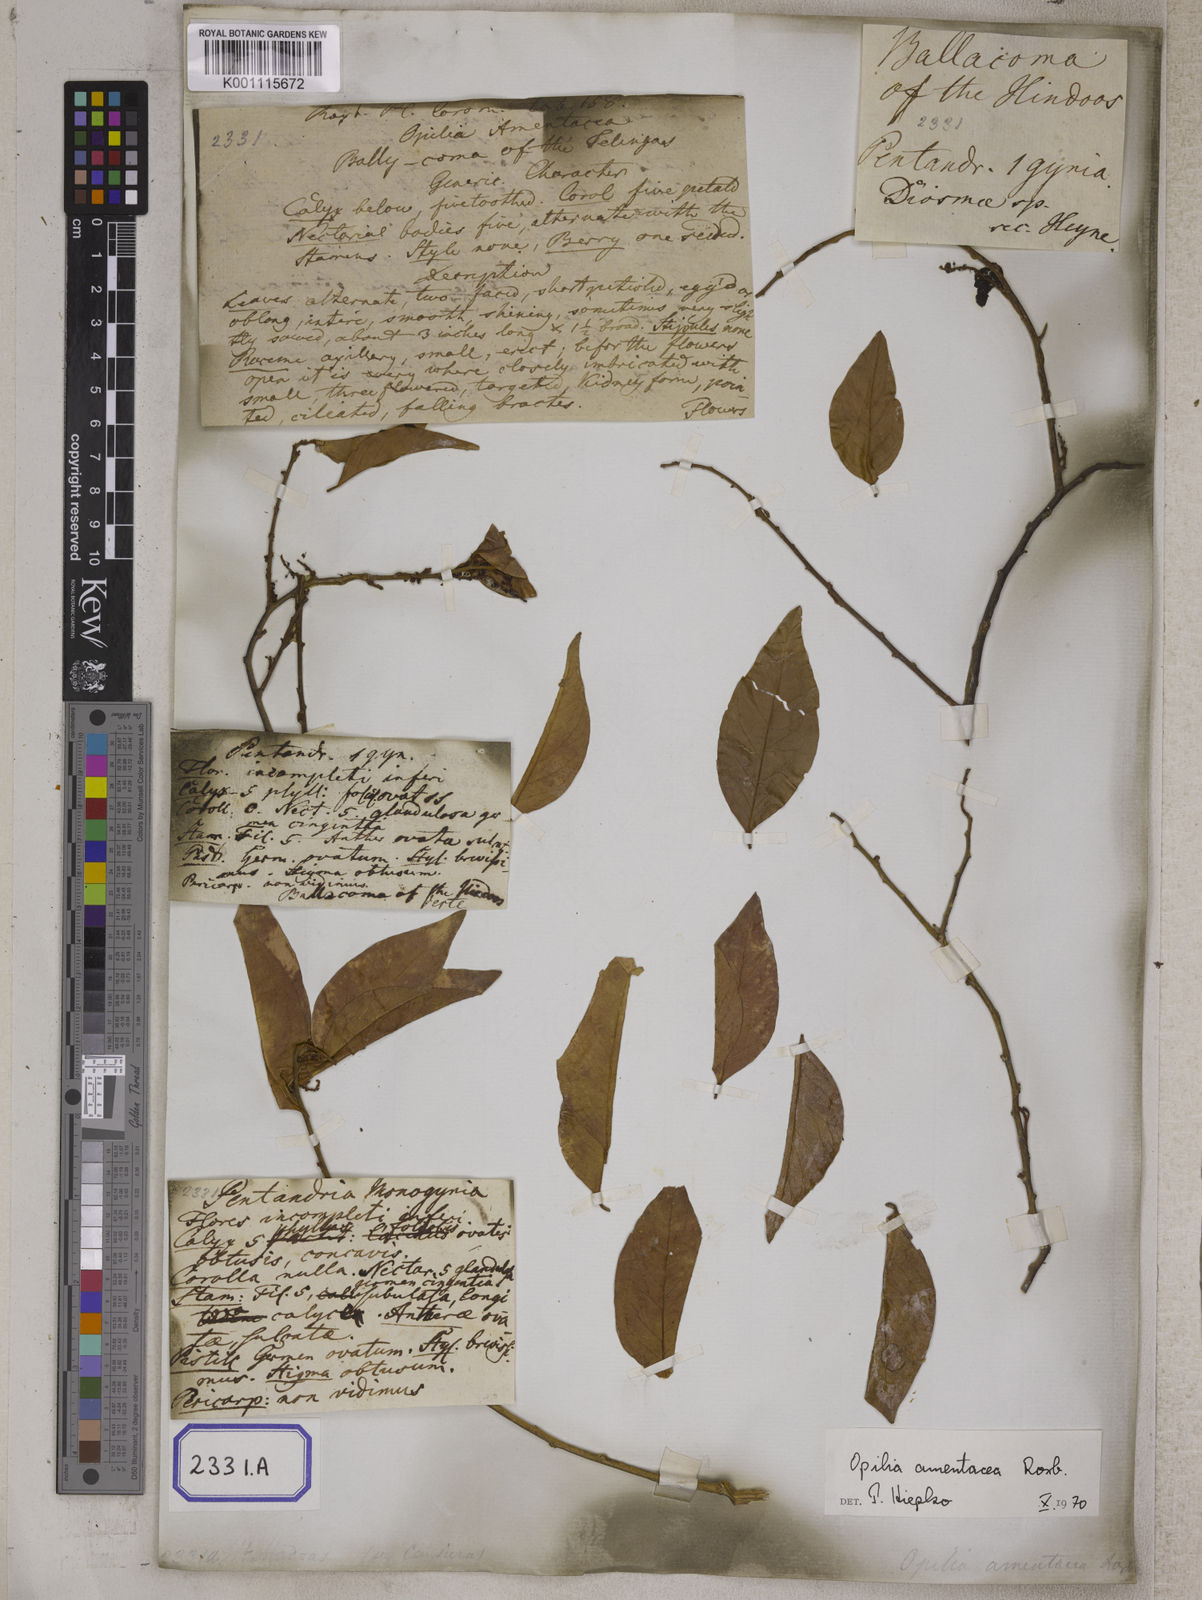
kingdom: Plantae
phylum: Tracheophyta
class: Magnoliopsida
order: Santalales
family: Opiliaceae
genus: Opilia
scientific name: Opilia amentacea
